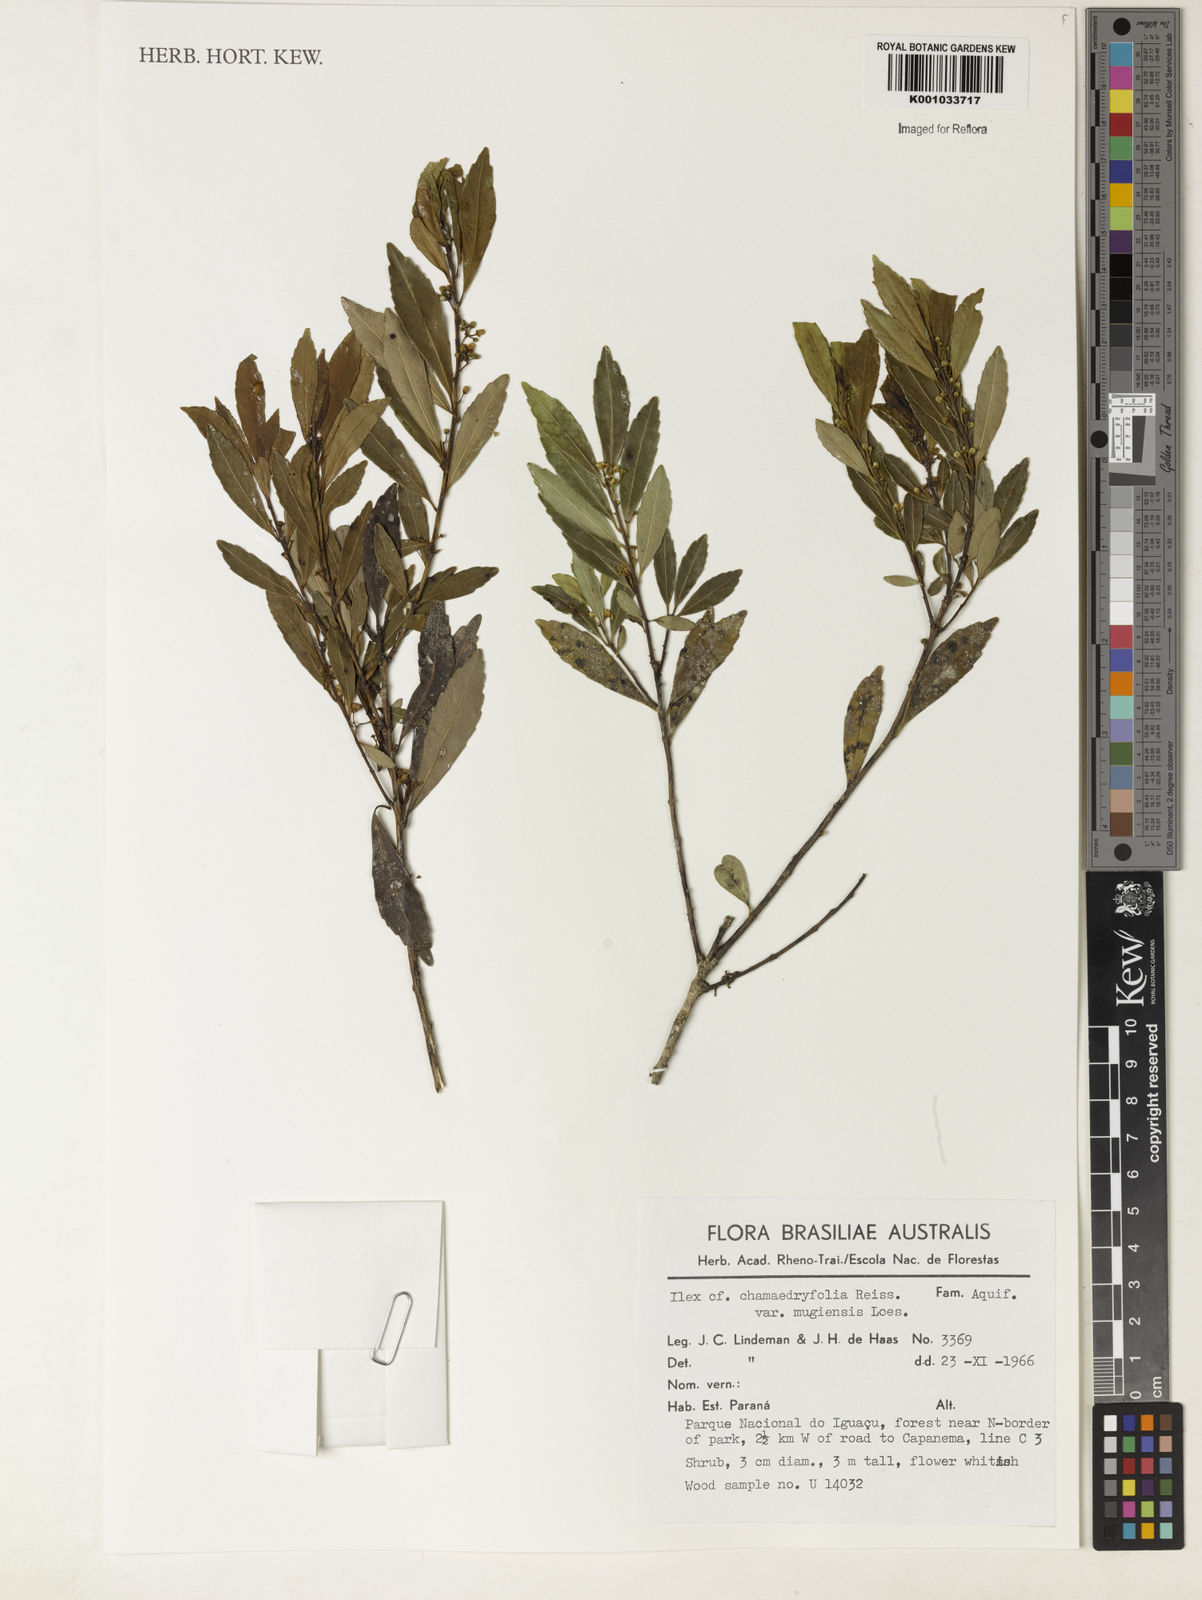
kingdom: Plantae
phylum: Tracheophyta
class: Magnoliopsida
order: Aquifoliales
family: Aquifoliaceae
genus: Ilex
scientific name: Ilex chamaedryfolia
